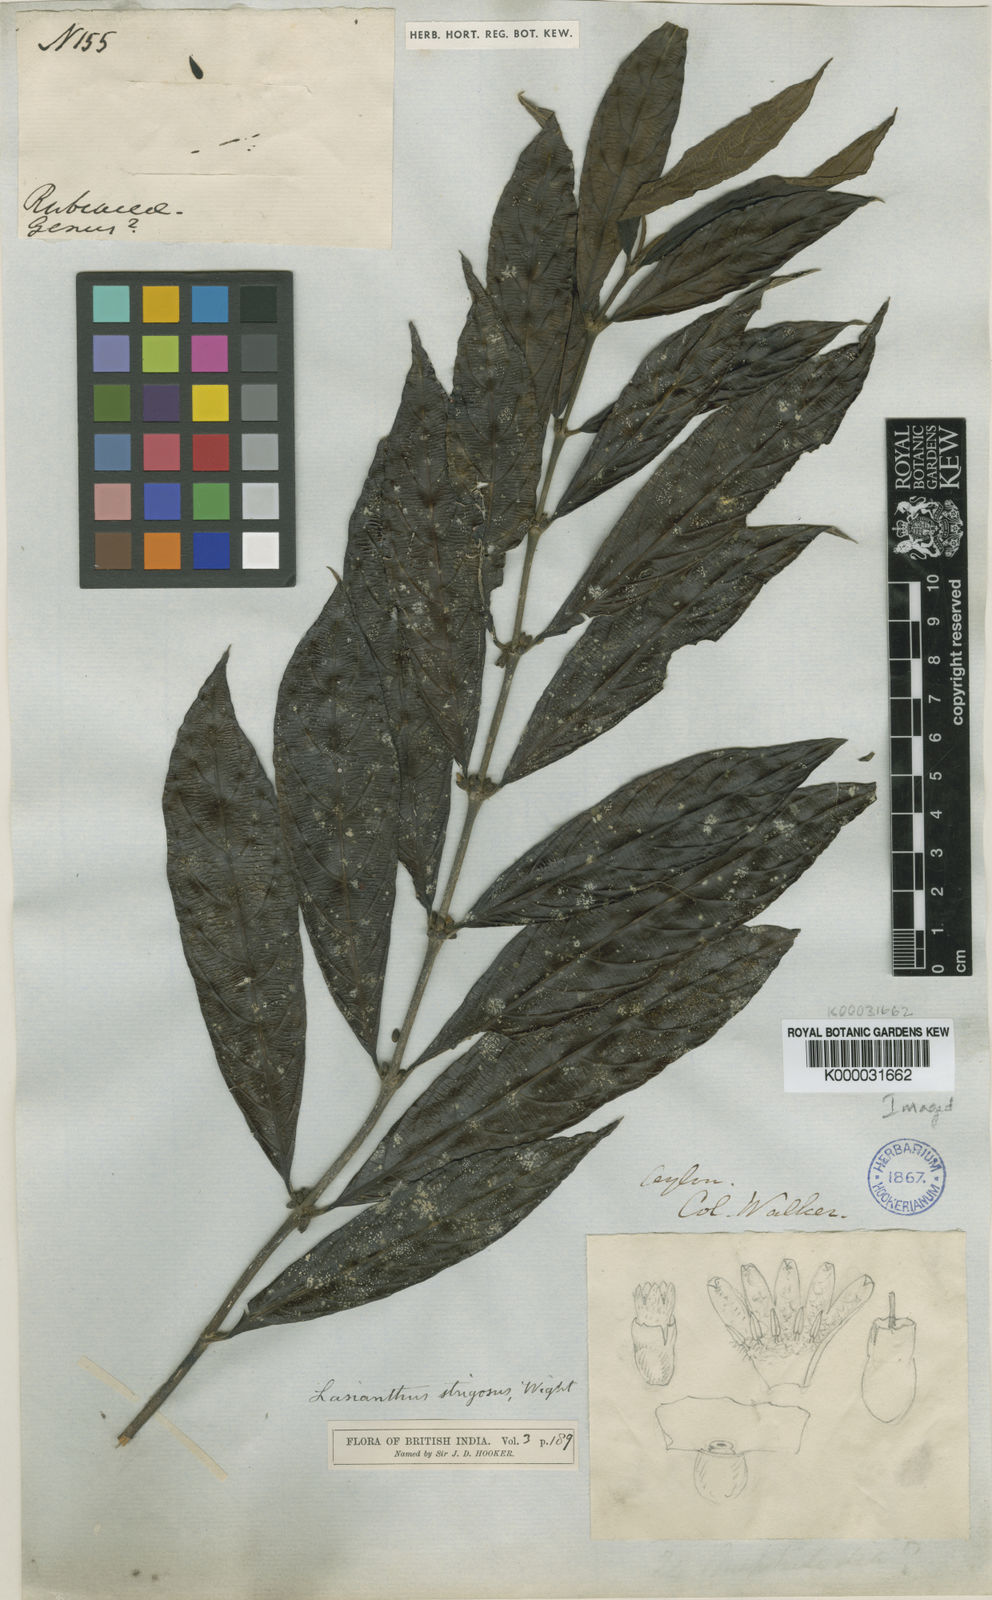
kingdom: Plantae
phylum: Tracheophyta
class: Magnoliopsida
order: Gentianales
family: Rubiaceae
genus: Lasianthus
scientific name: Lasianthus strigosus
